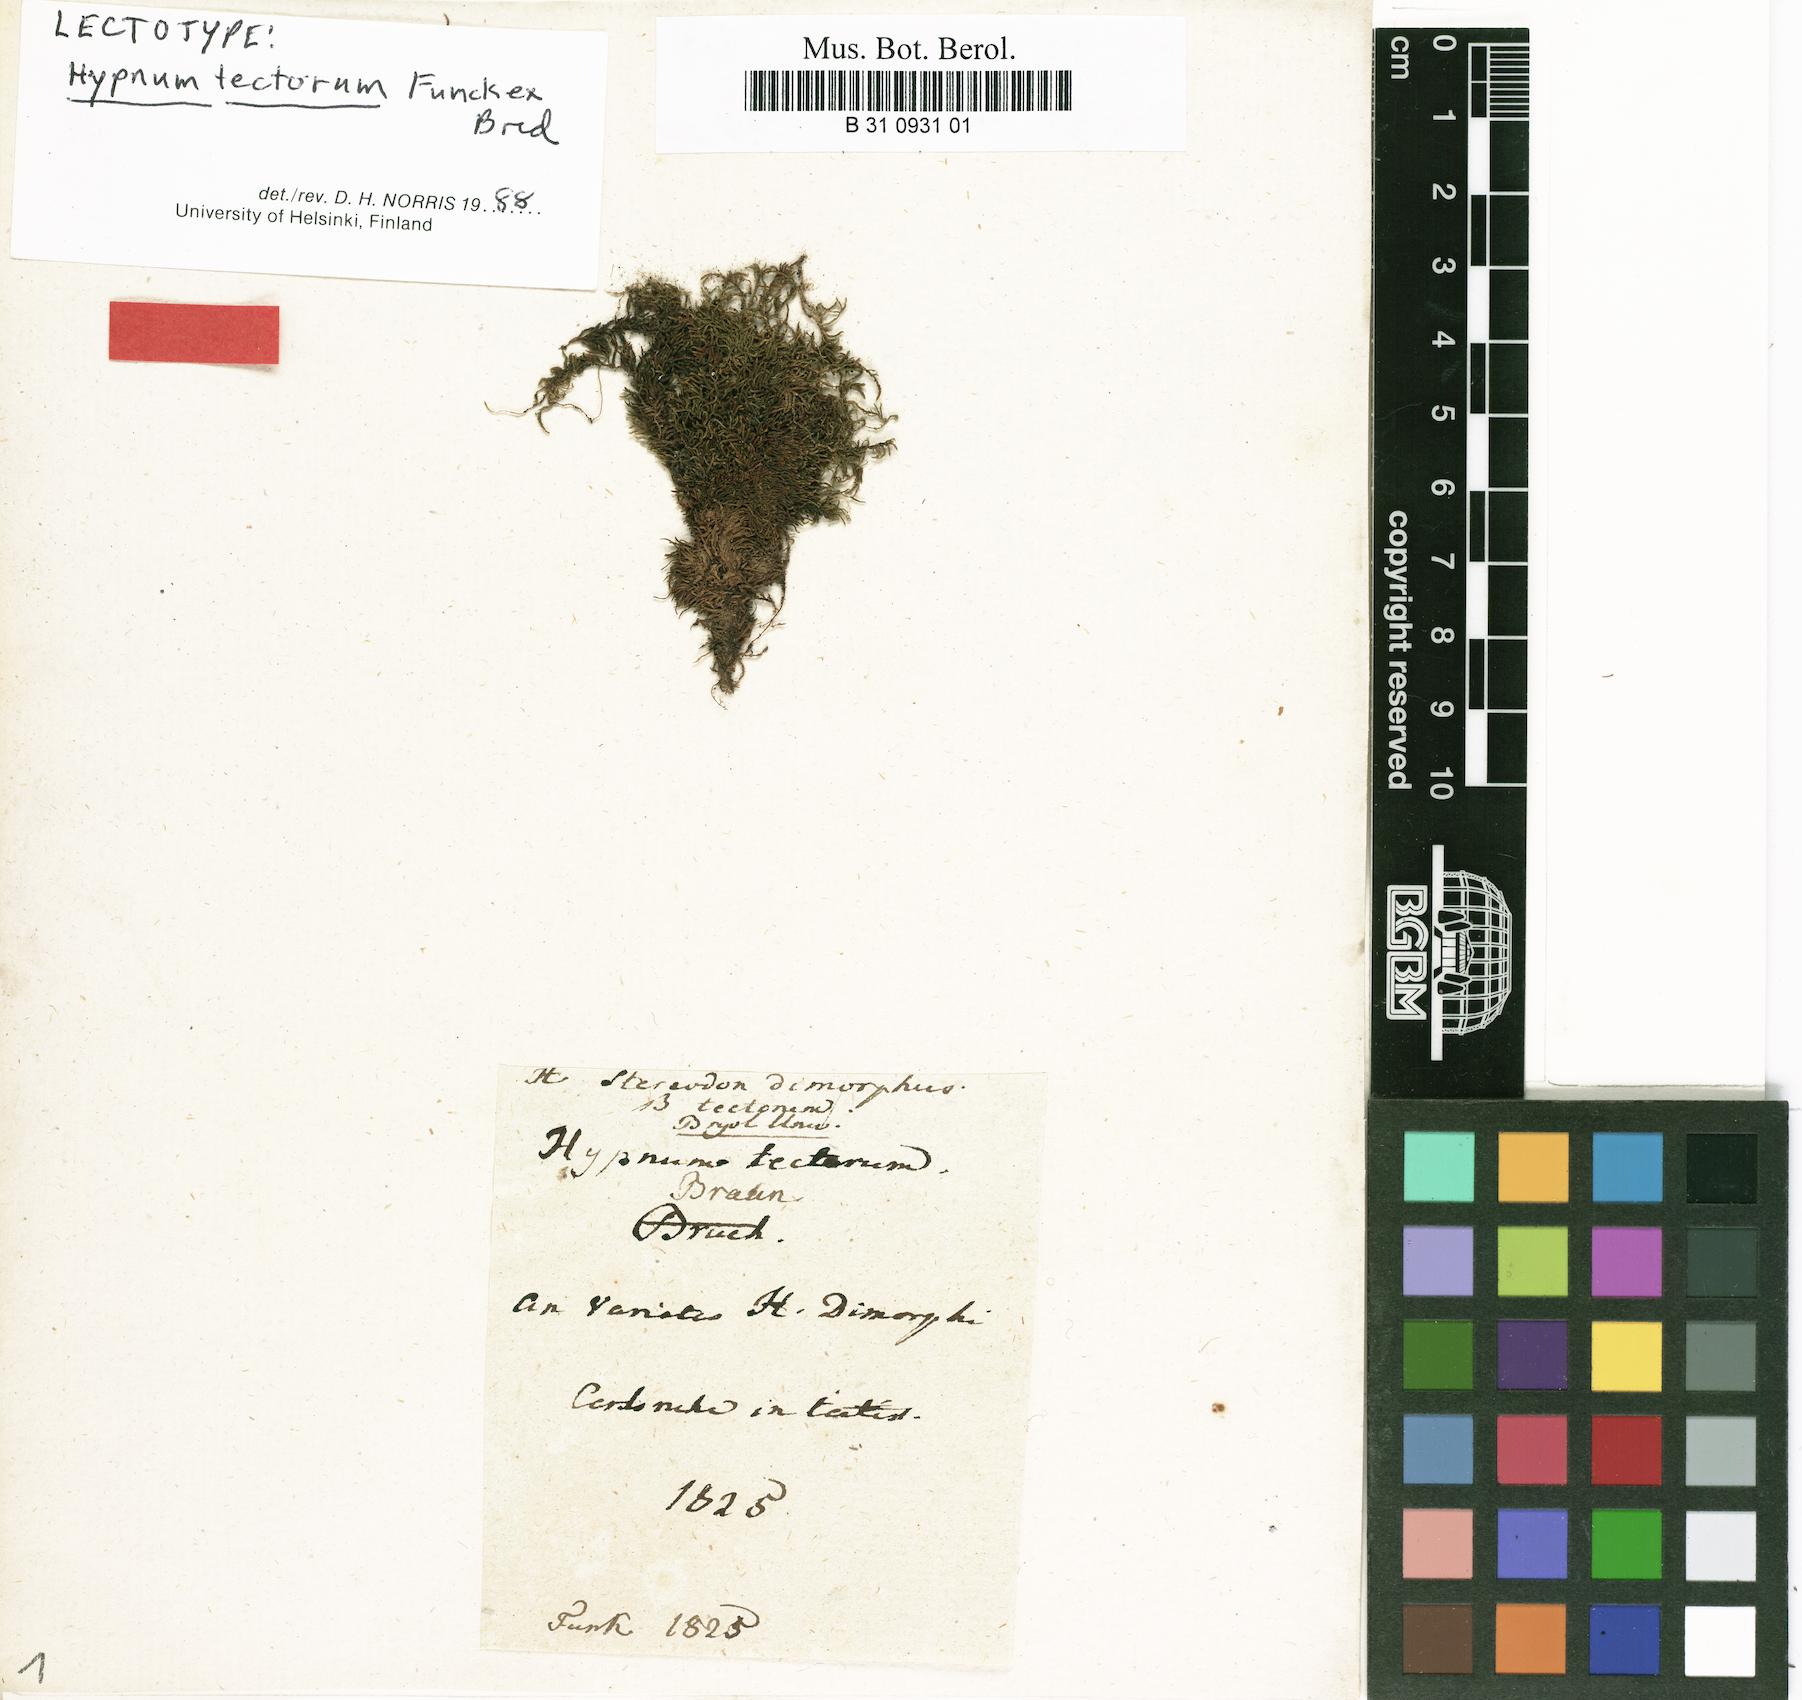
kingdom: Plantae
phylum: Bryophyta
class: Bryopsida
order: Hypnales
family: Pseudoleskeellaceae
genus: Pseudoleskeella
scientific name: Pseudoleskeella tectorum
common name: Rooftop leske's moss
